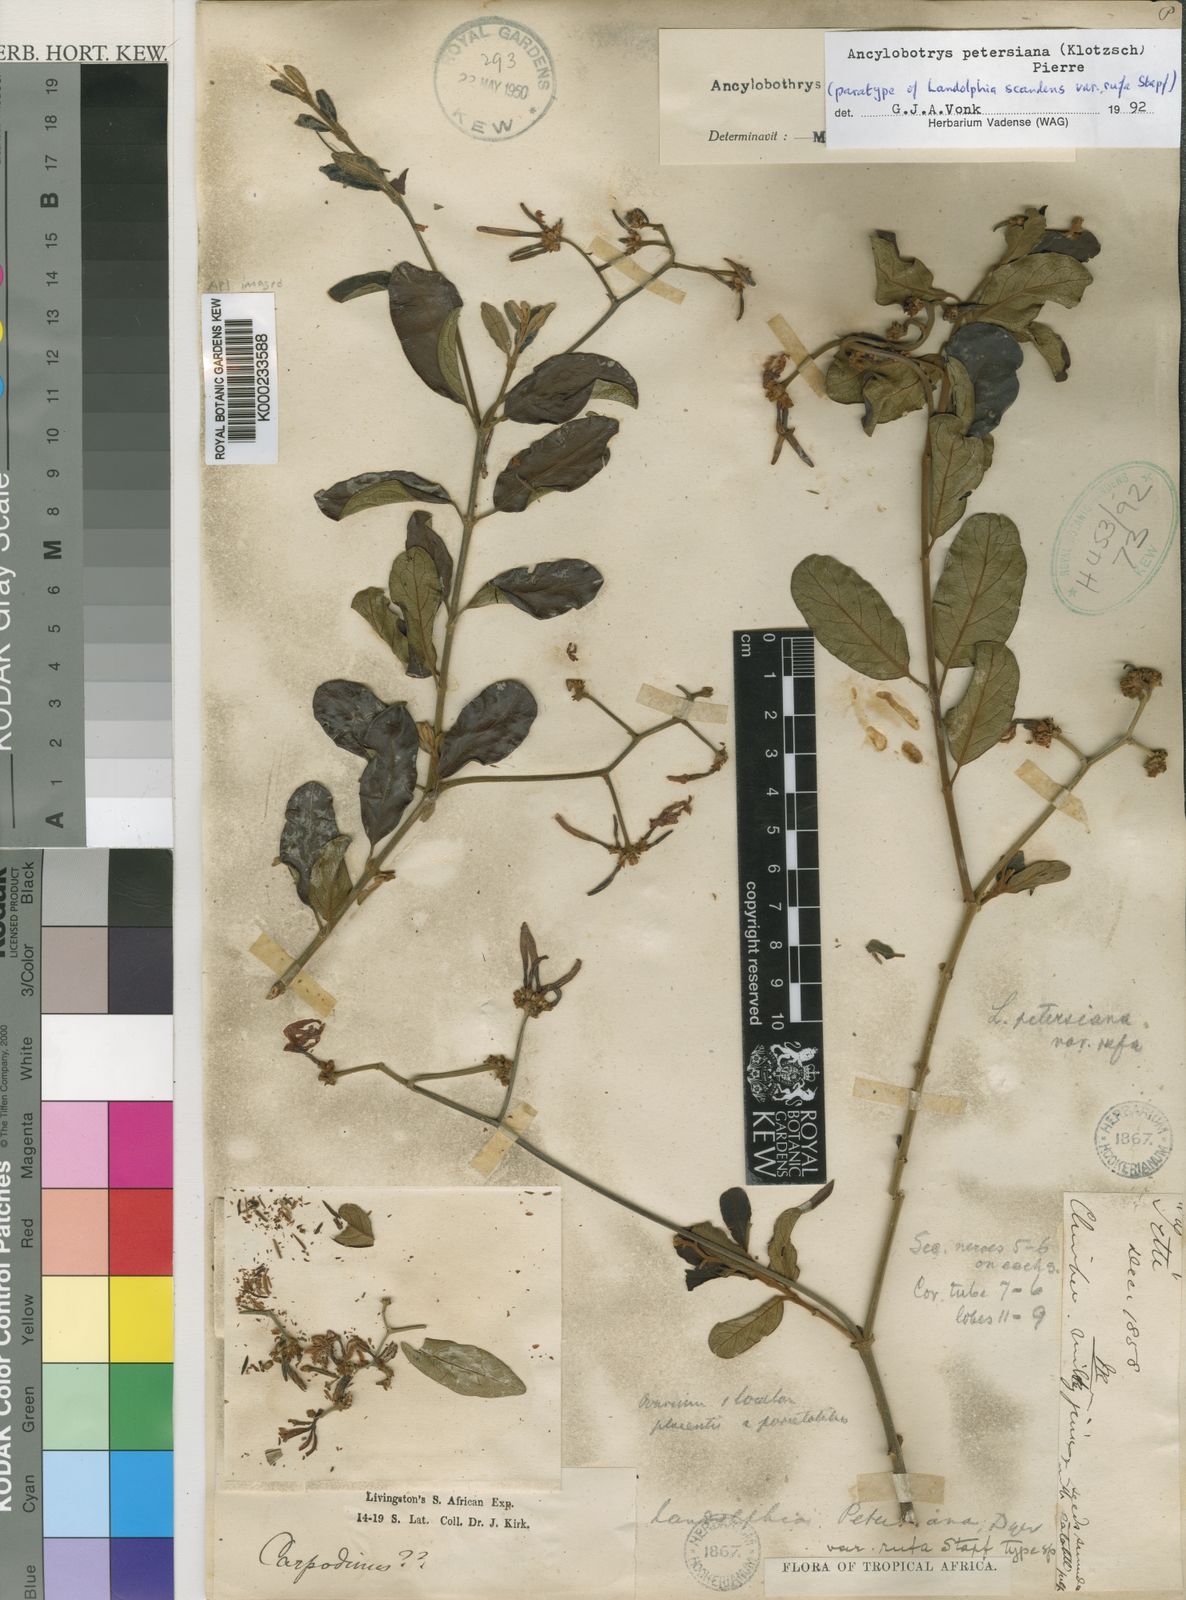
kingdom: Plantae
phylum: Tracheophyta
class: Magnoliopsida
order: Gentianales
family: Apocynaceae
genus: Ancylobothrys
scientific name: Ancylobothrys petersiana
